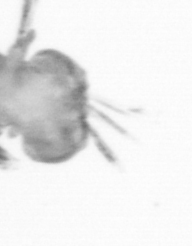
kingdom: Animalia
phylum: Annelida
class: Polychaeta
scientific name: Polychaeta
